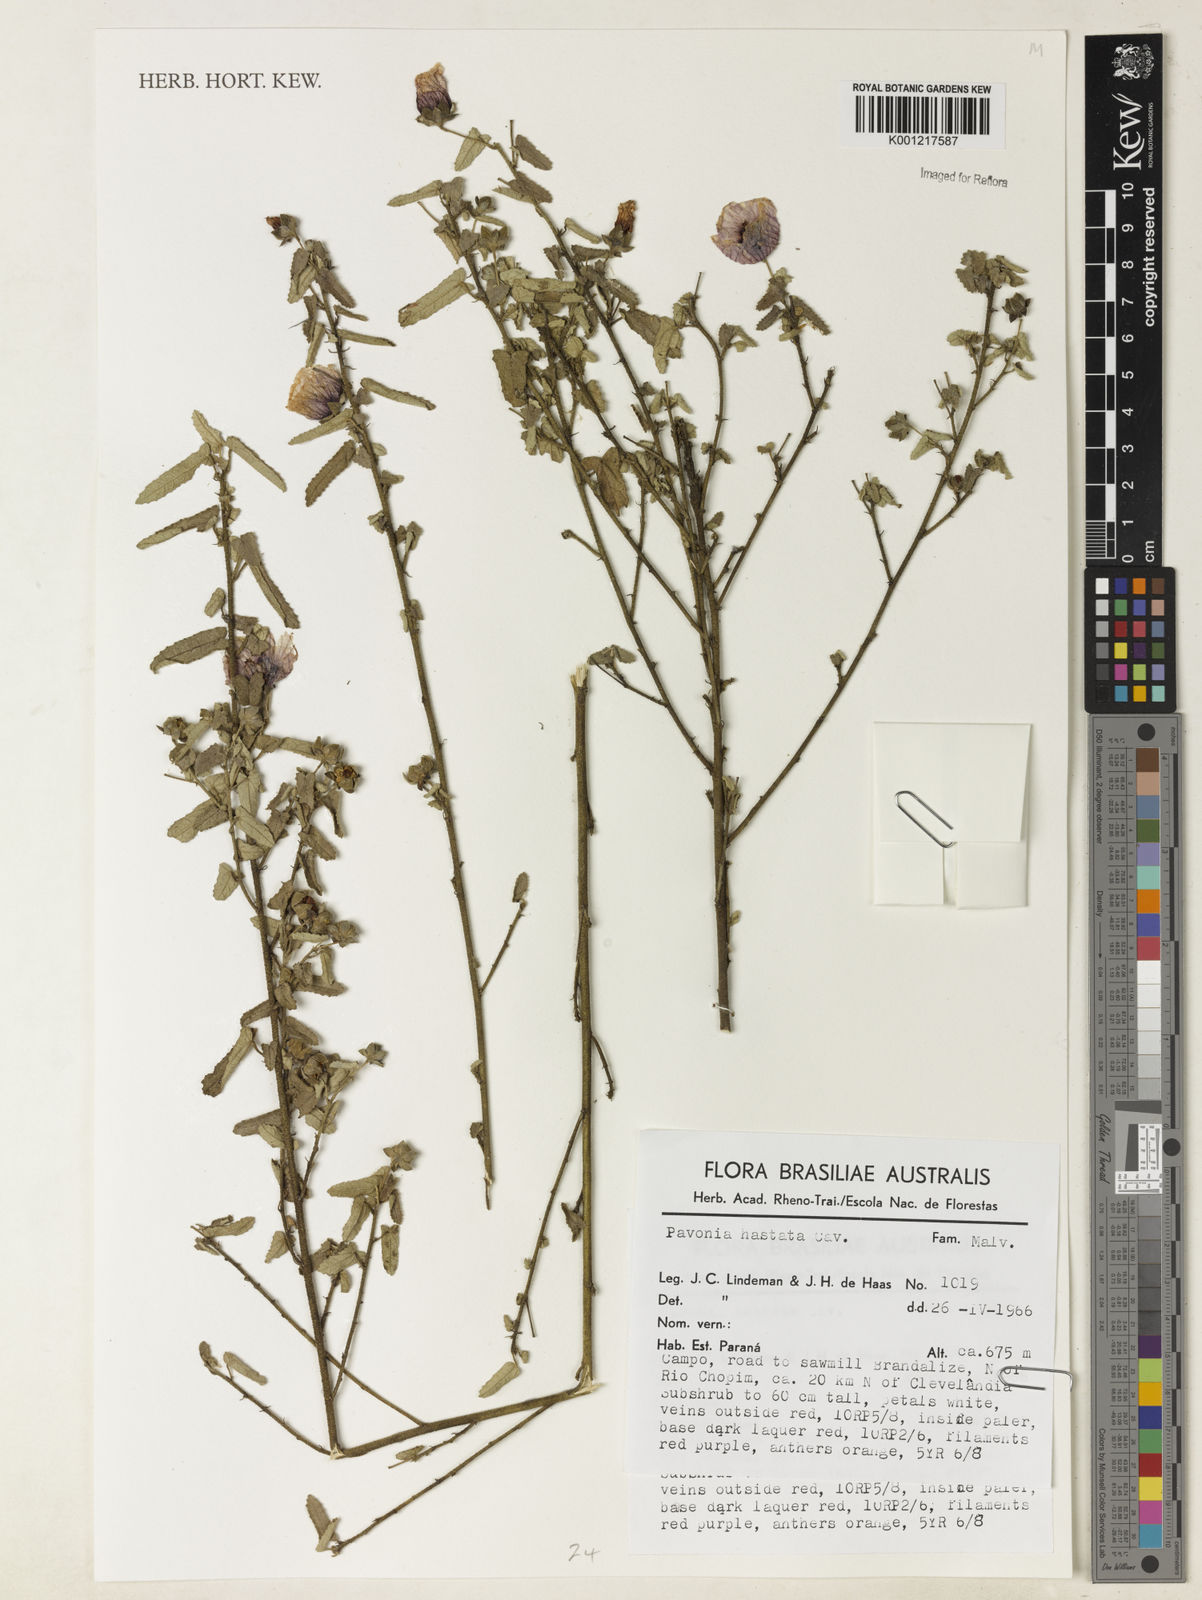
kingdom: Plantae
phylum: Tracheophyta
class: Magnoliopsida
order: Malvales
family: Malvaceae
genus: Pavonia
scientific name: Pavonia hastata
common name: Spearleaf swampmallow
